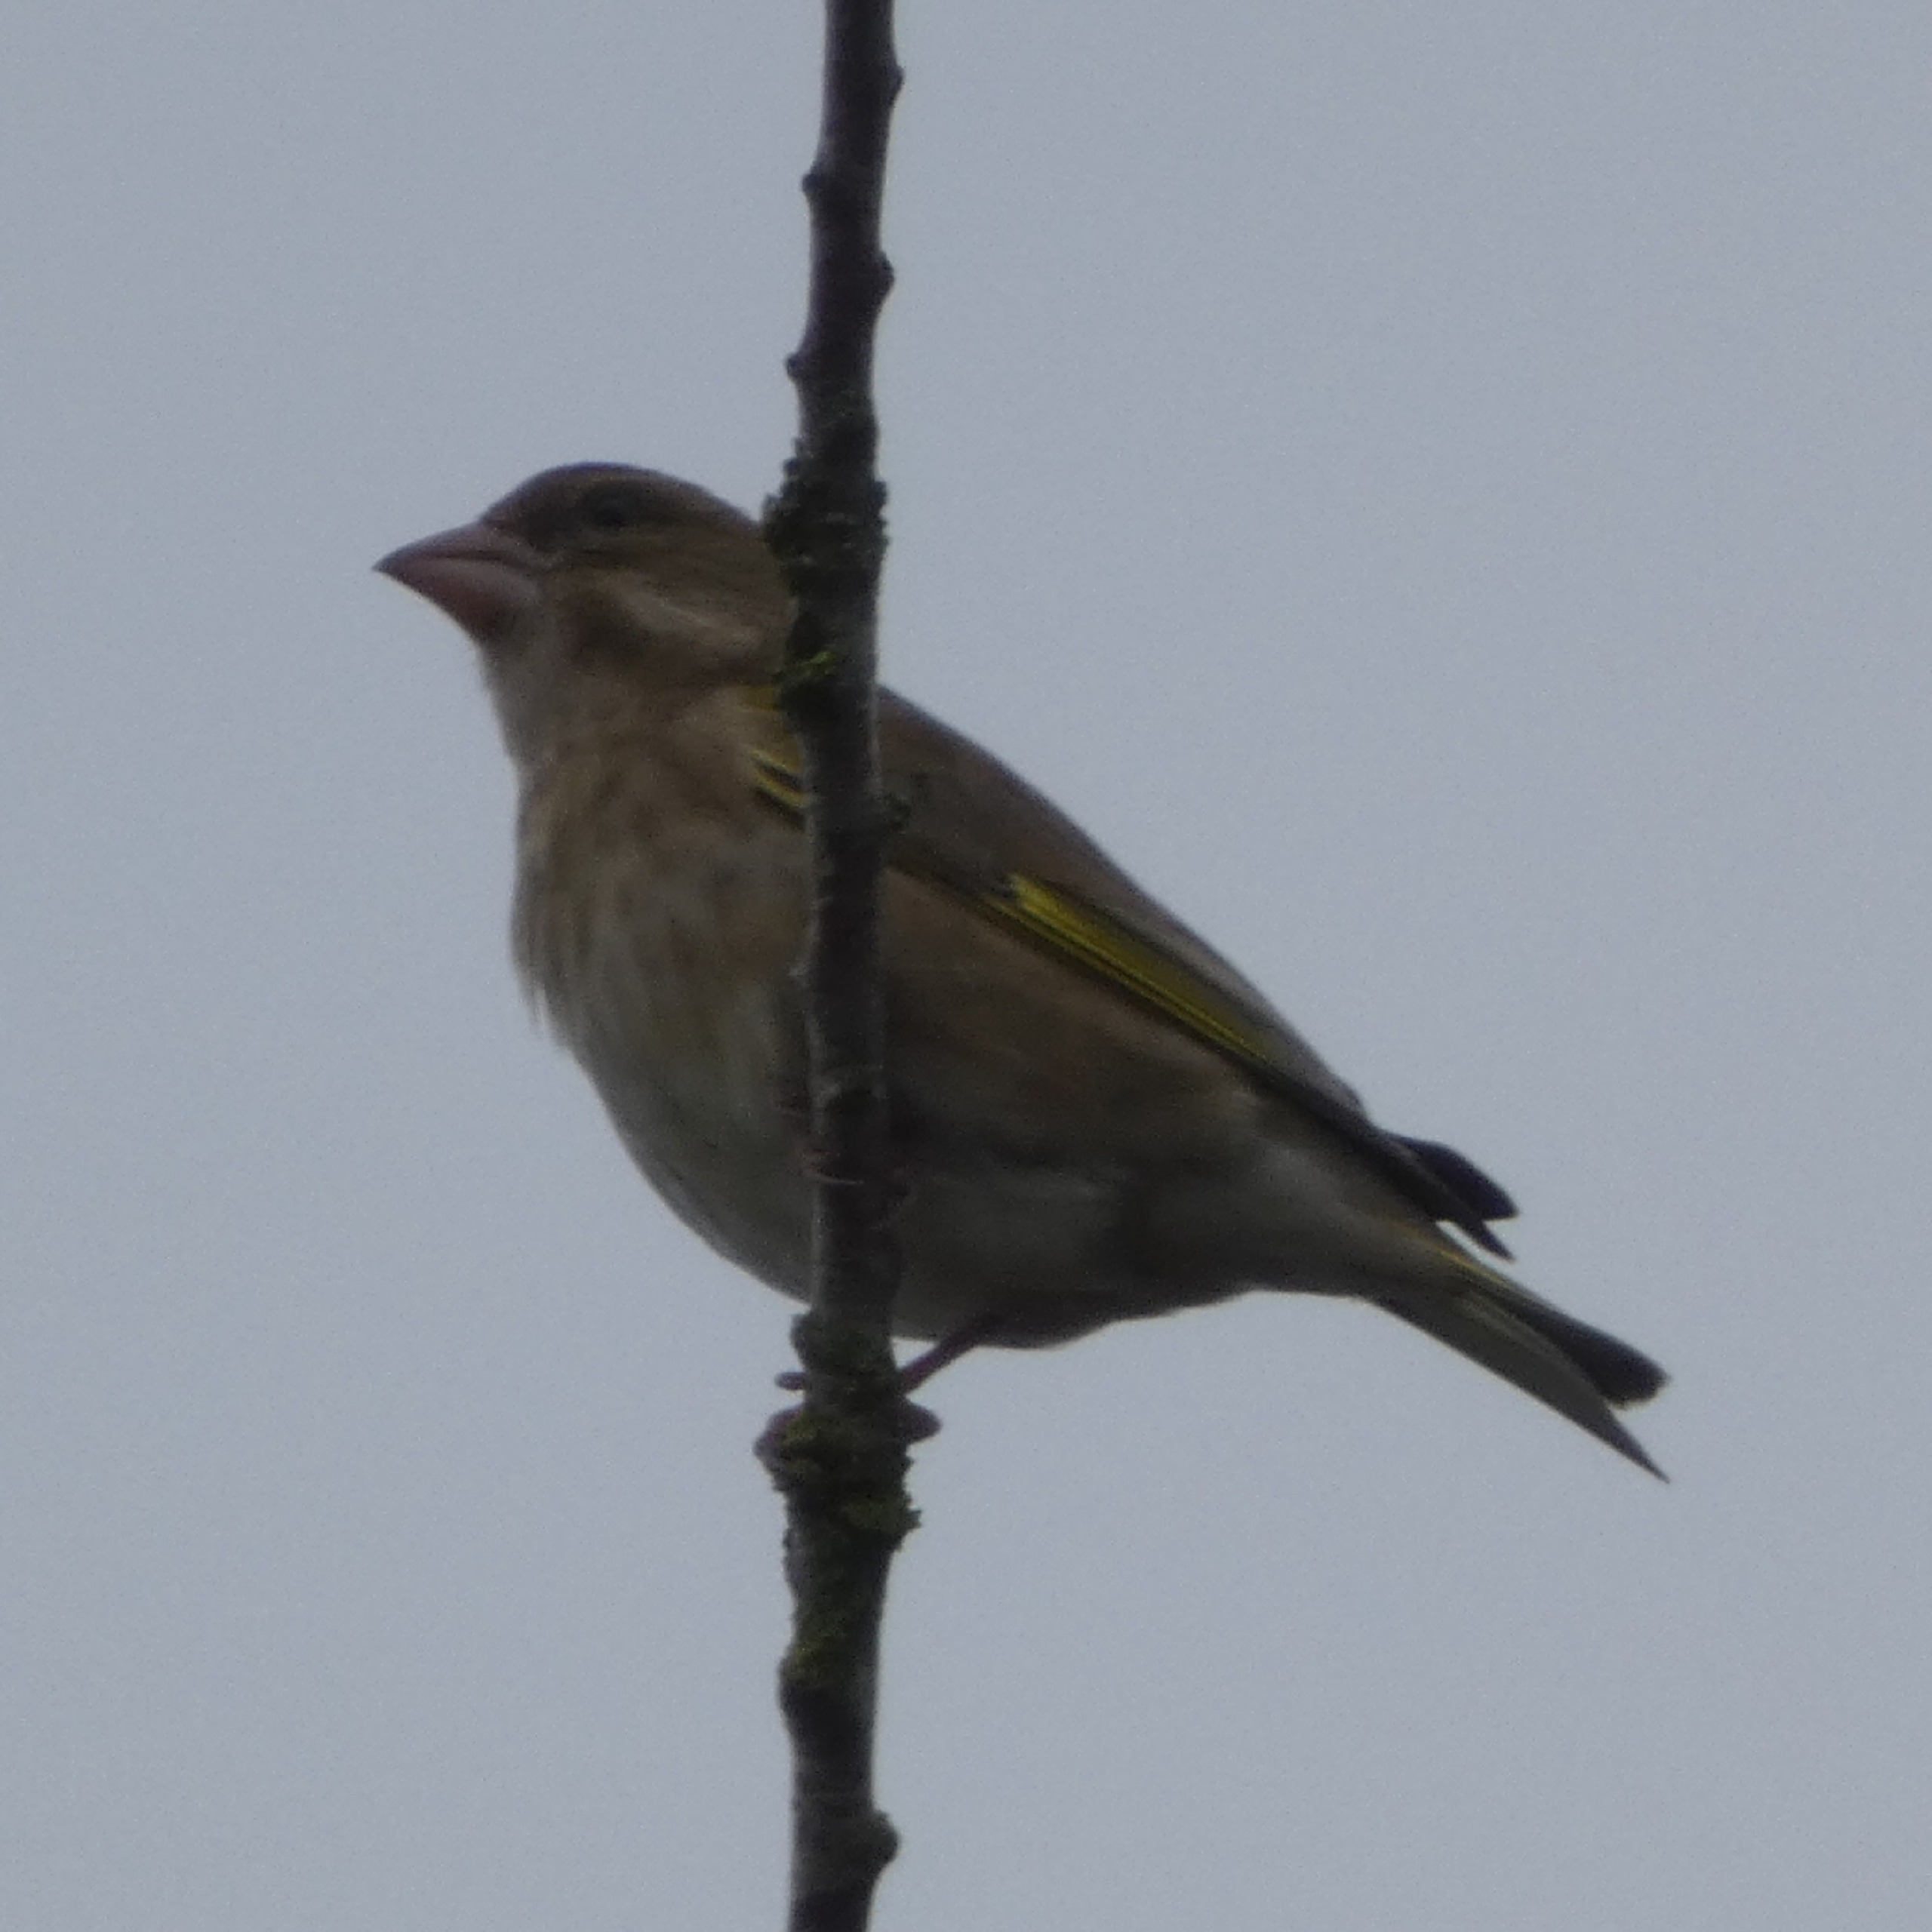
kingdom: Plantae
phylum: Tracheophyta
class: Liliopsida
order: Poales
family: Poaceae
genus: Chloris
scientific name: Chloris chloris
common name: Grønirisk
